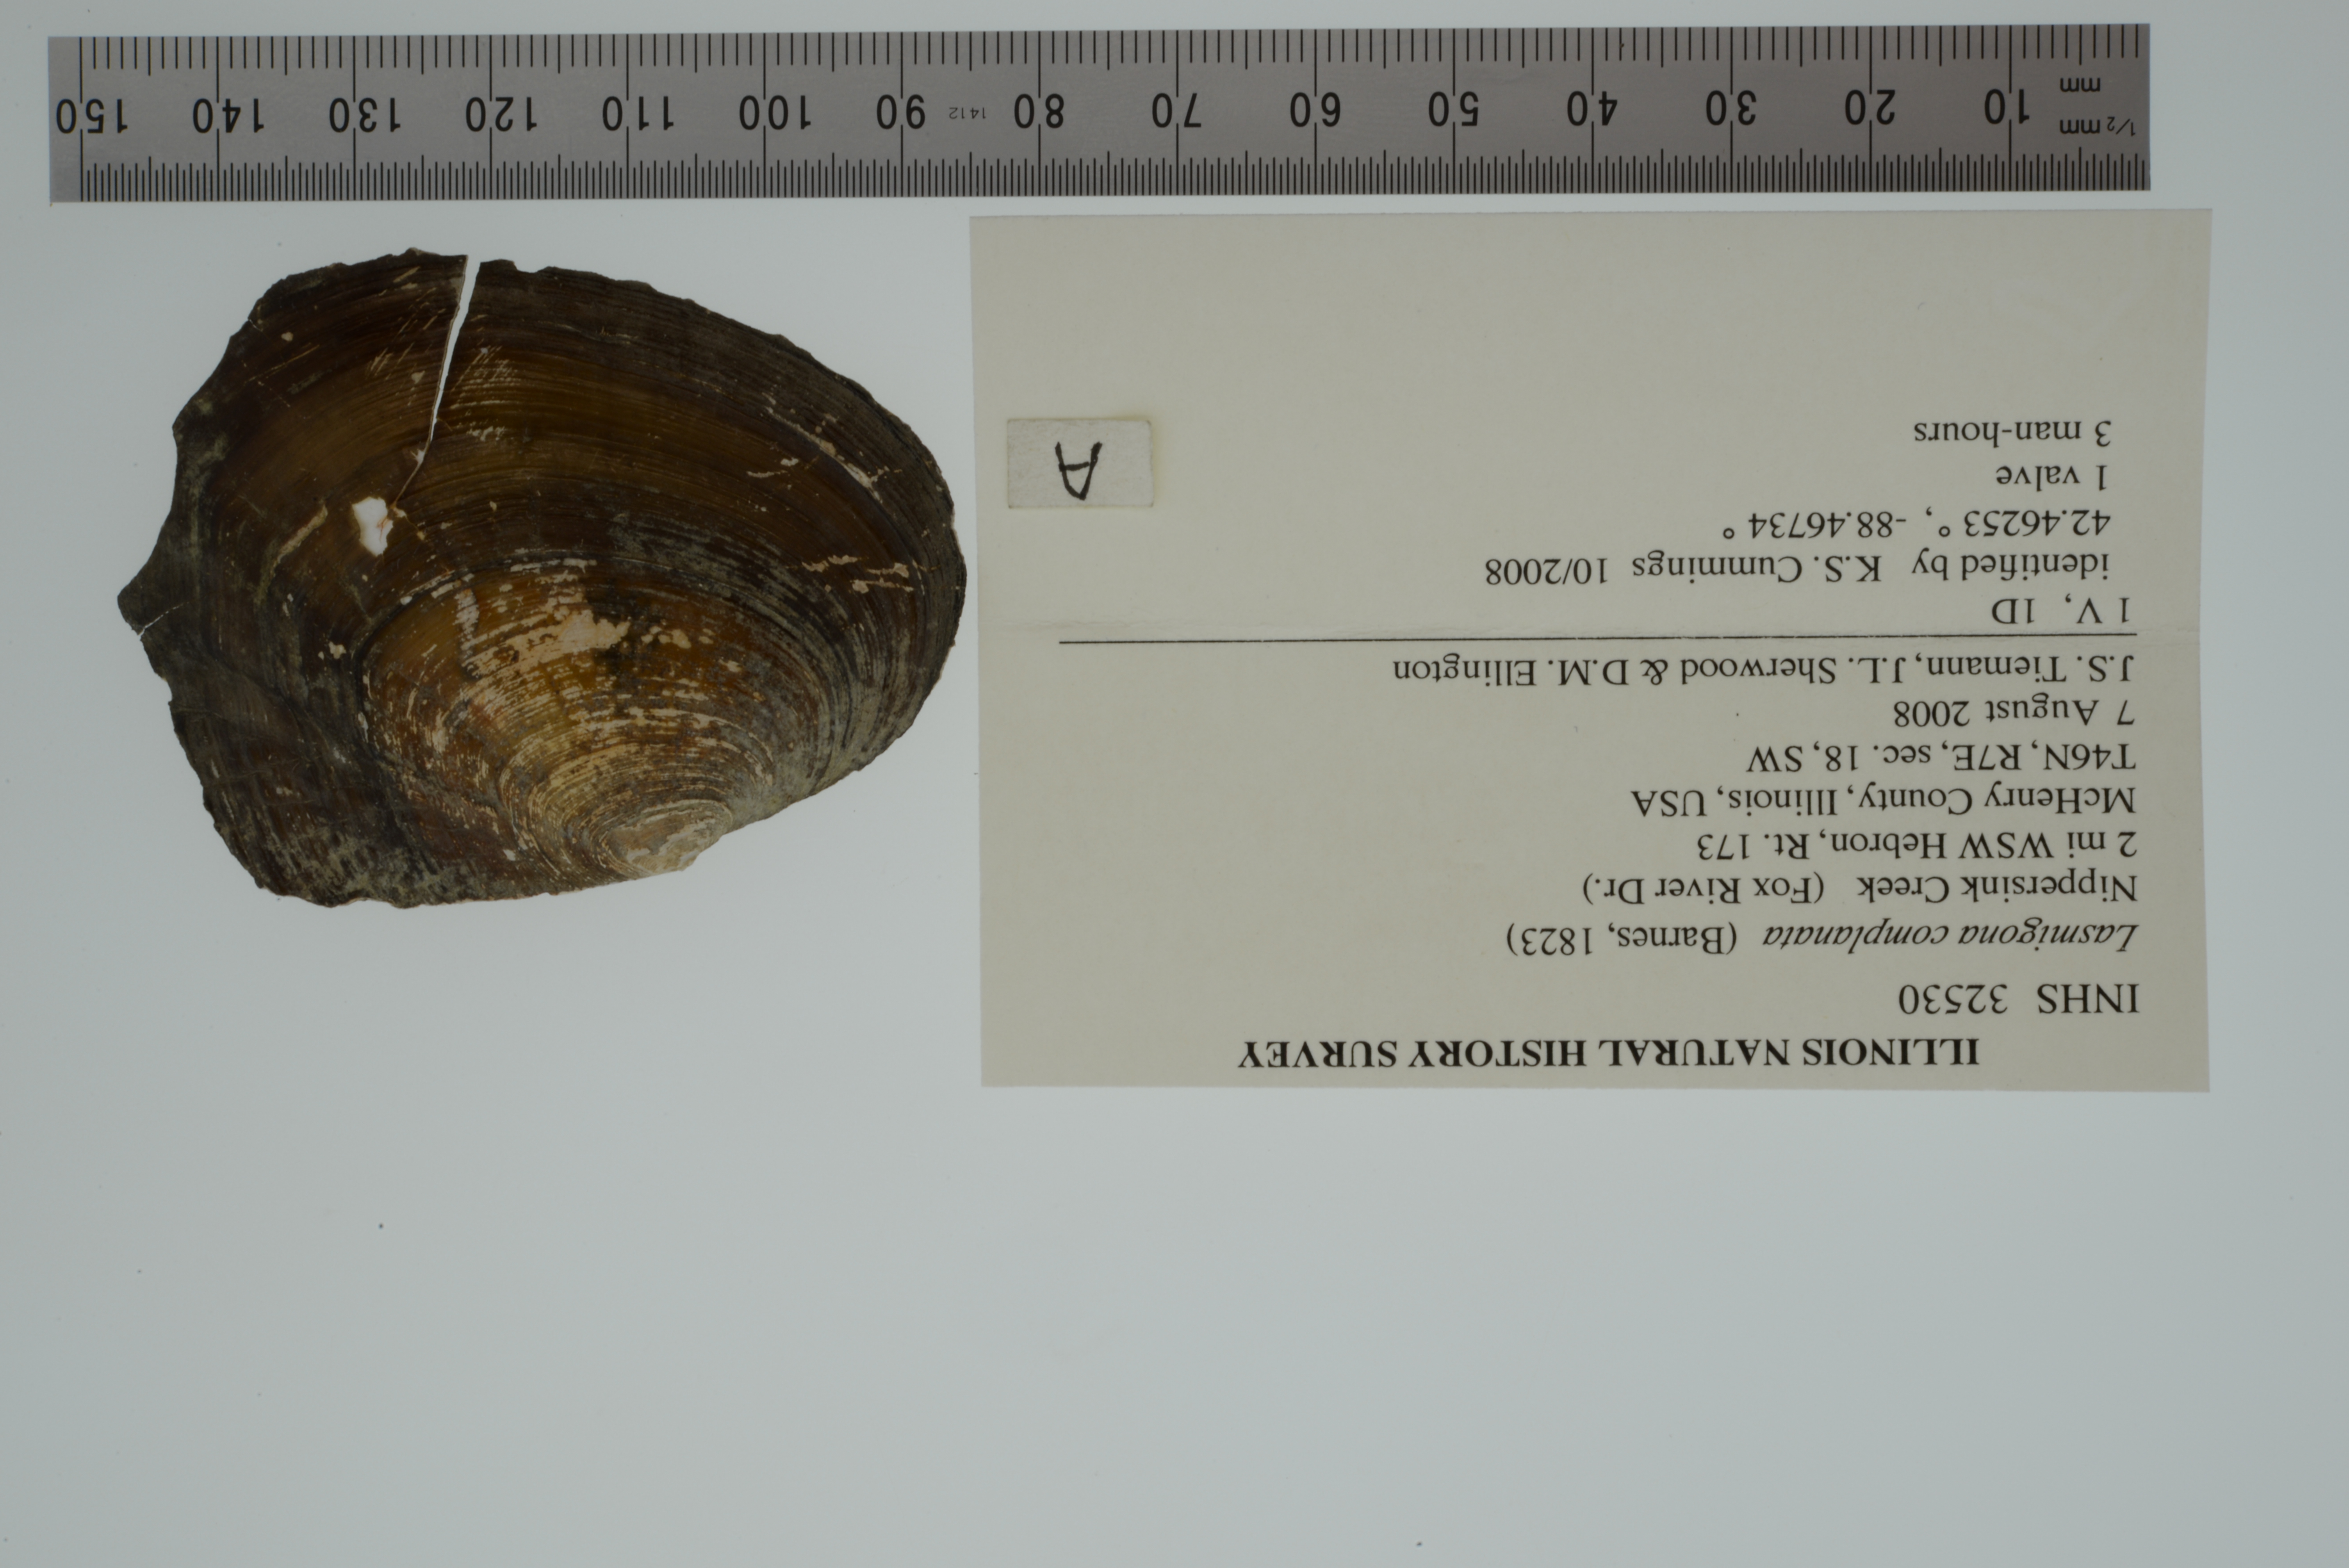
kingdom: Animalia
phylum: Mollusca
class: Bivalvia
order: Unionida
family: Unionidae
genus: Lasmigona
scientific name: Lasmigona complanata
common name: White heelsplitter
